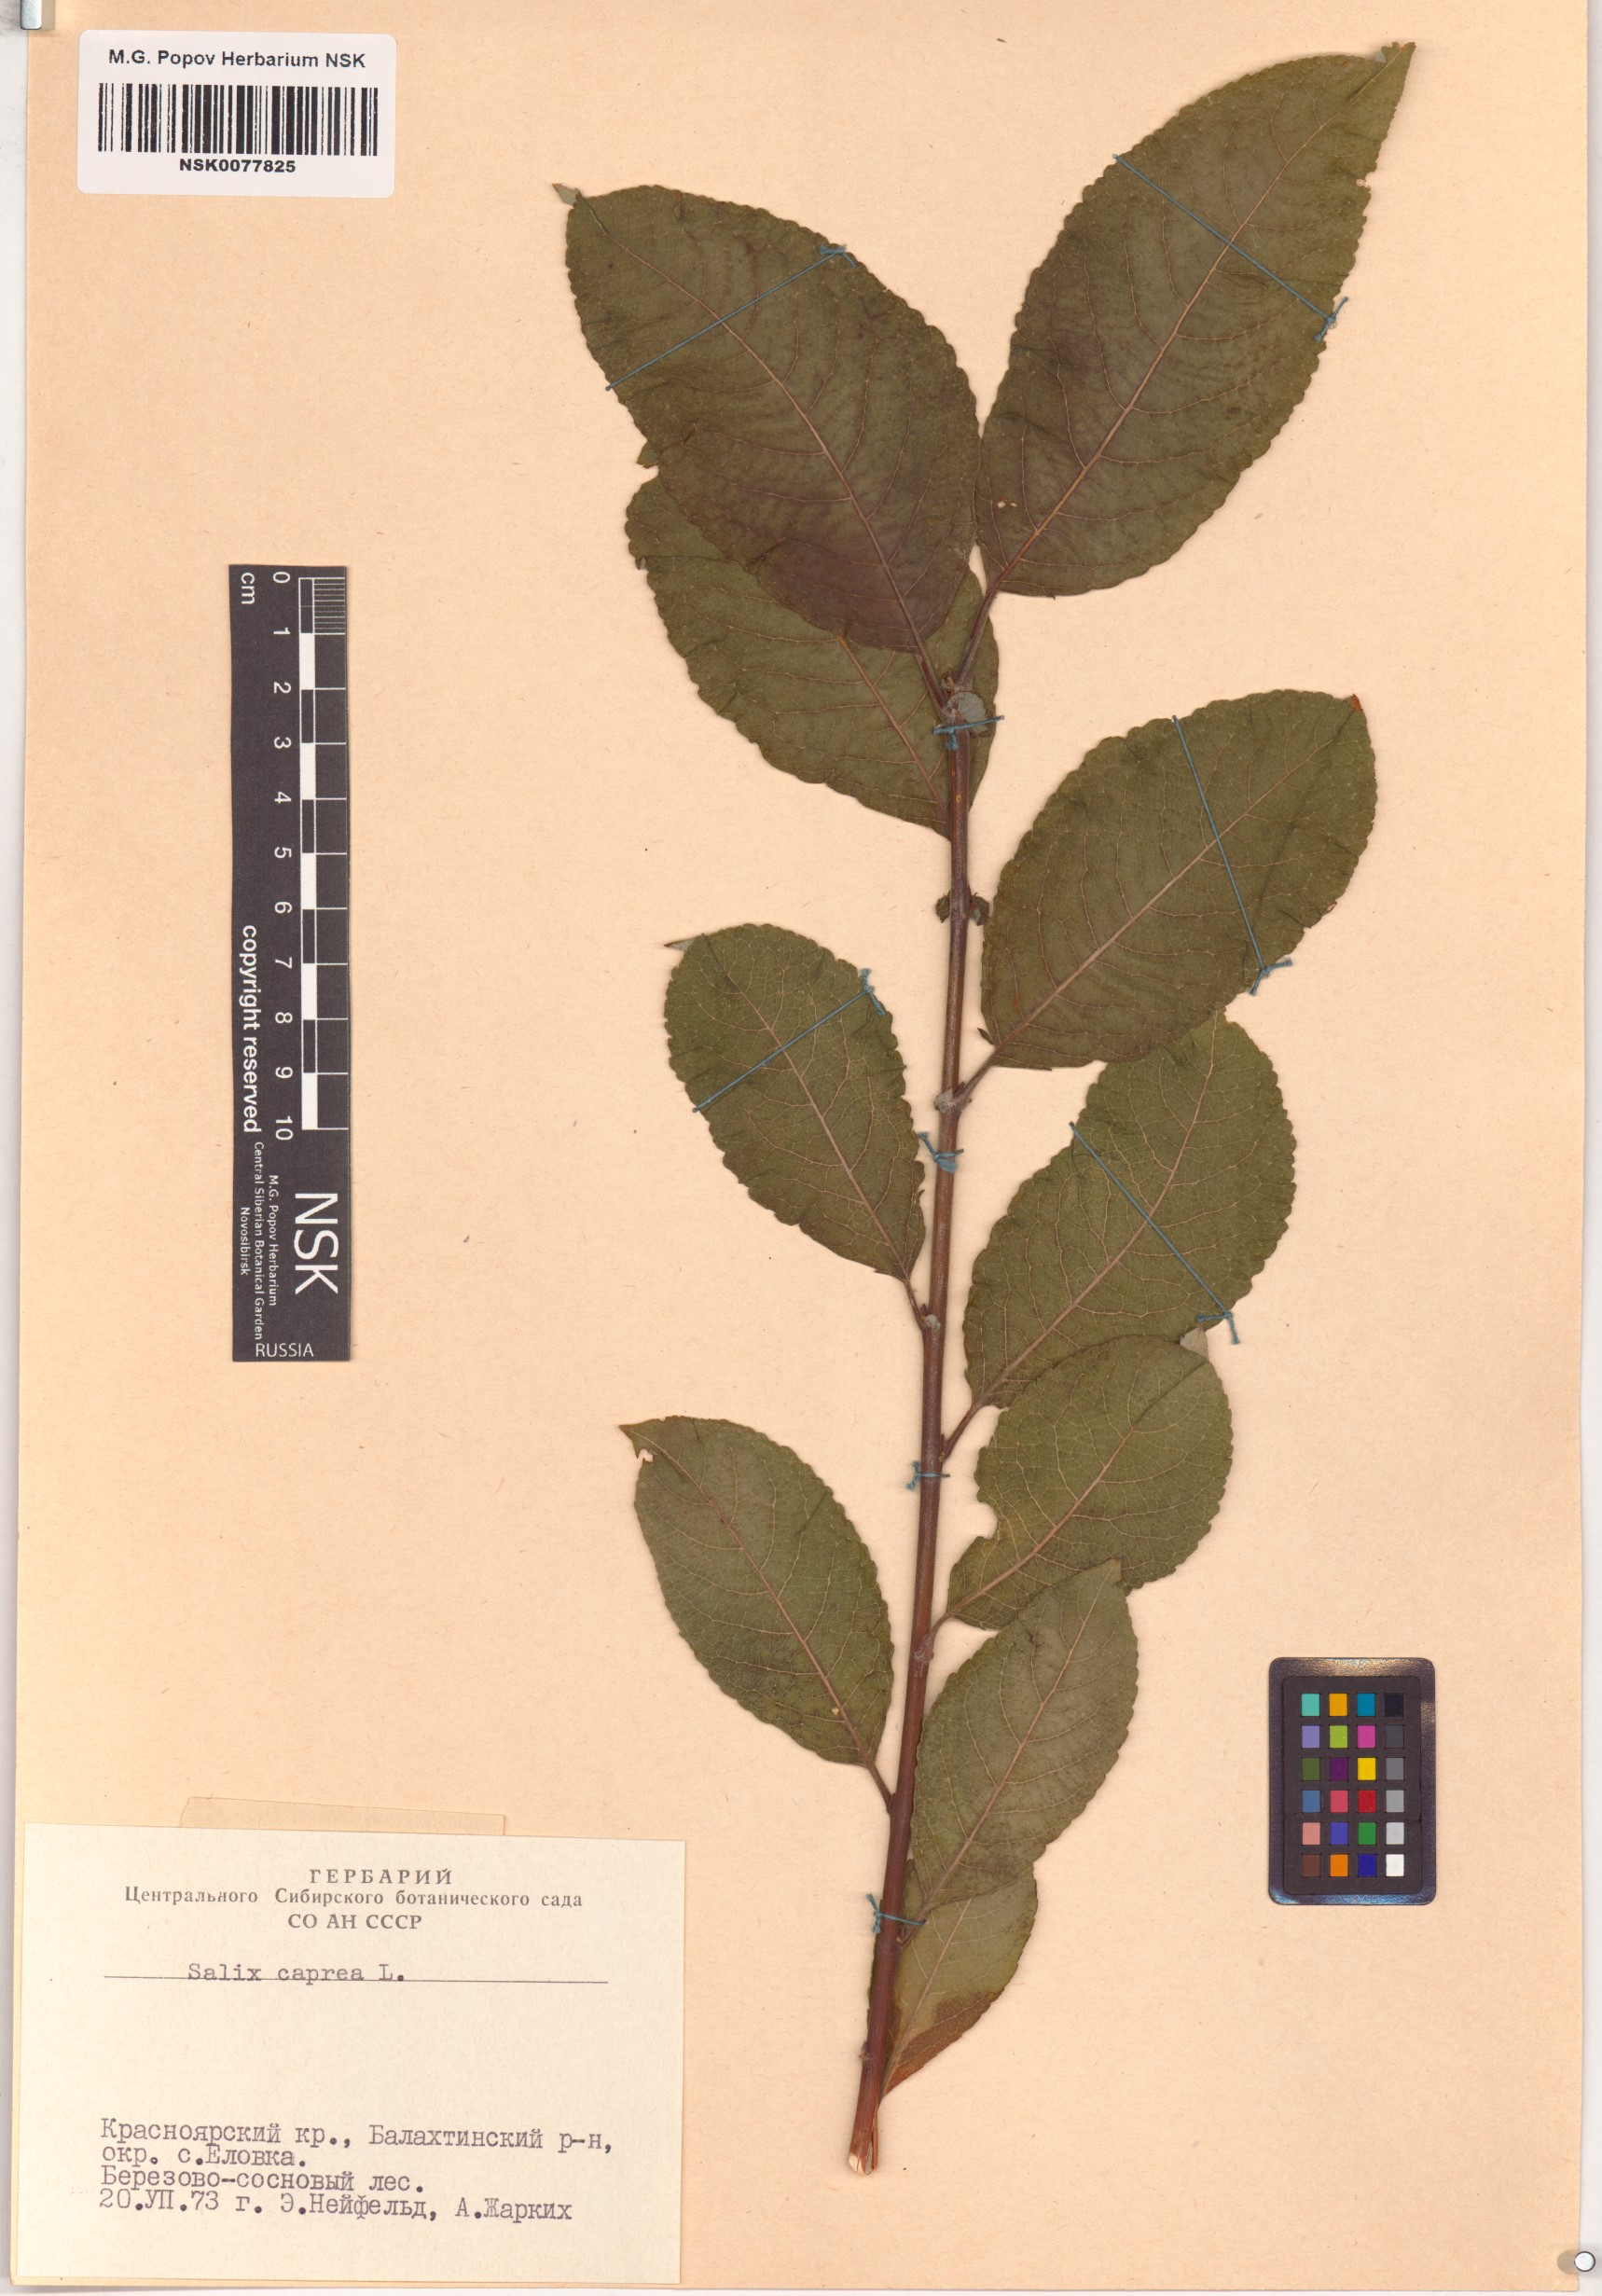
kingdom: Plantae
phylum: Tracheophyta
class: Magnoliopsida
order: Malpighiales
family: Salicaceae
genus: Salix
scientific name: Salix caprea
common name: Goat willow
